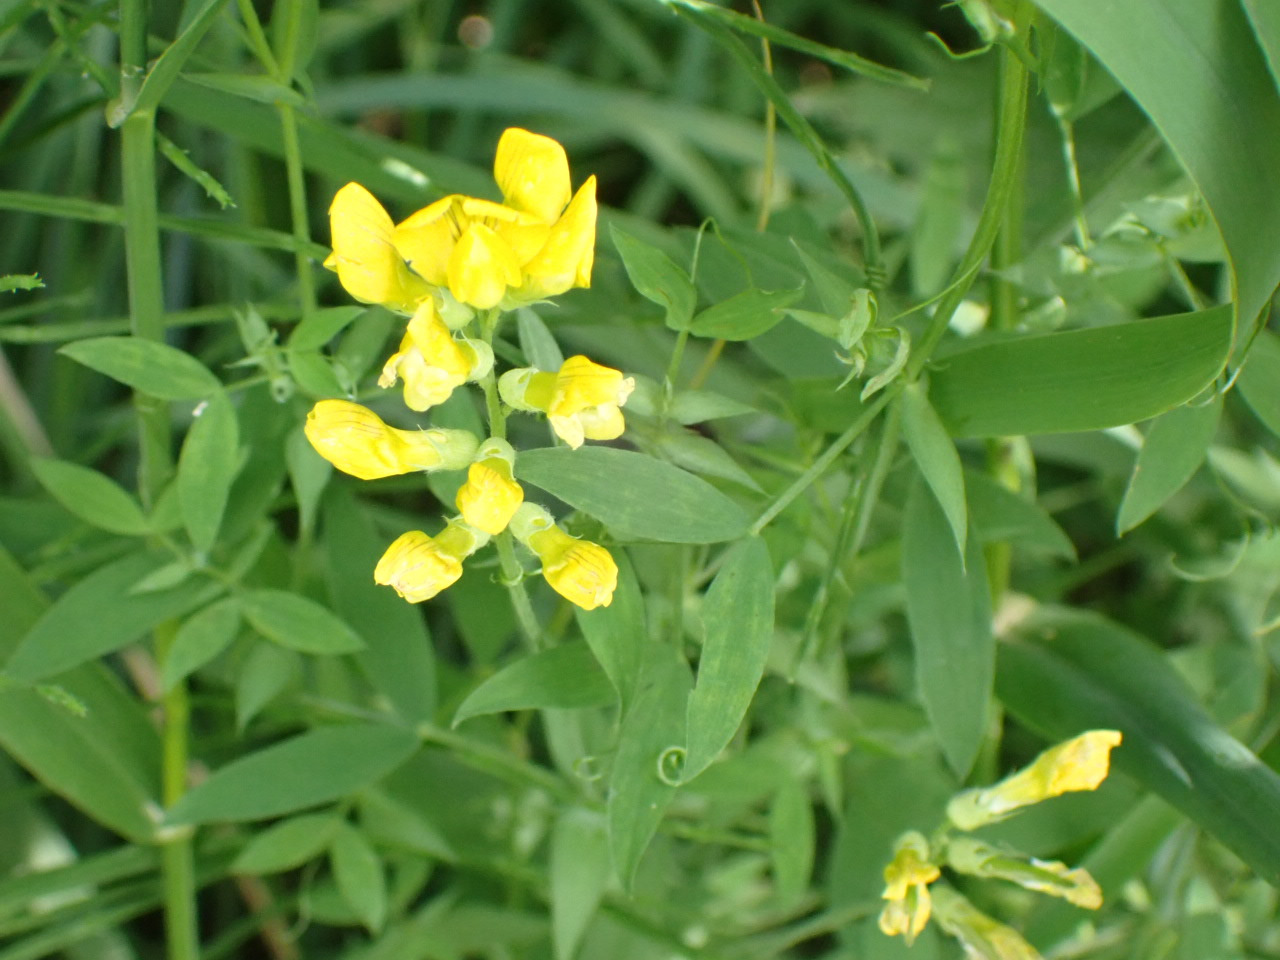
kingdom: Plantae
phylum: Tracheophyta
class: Magnoliopsida
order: Fabales
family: Fabaceae
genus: Lathyrus
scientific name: Lathyrus pratensis
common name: Gul fladbælg
